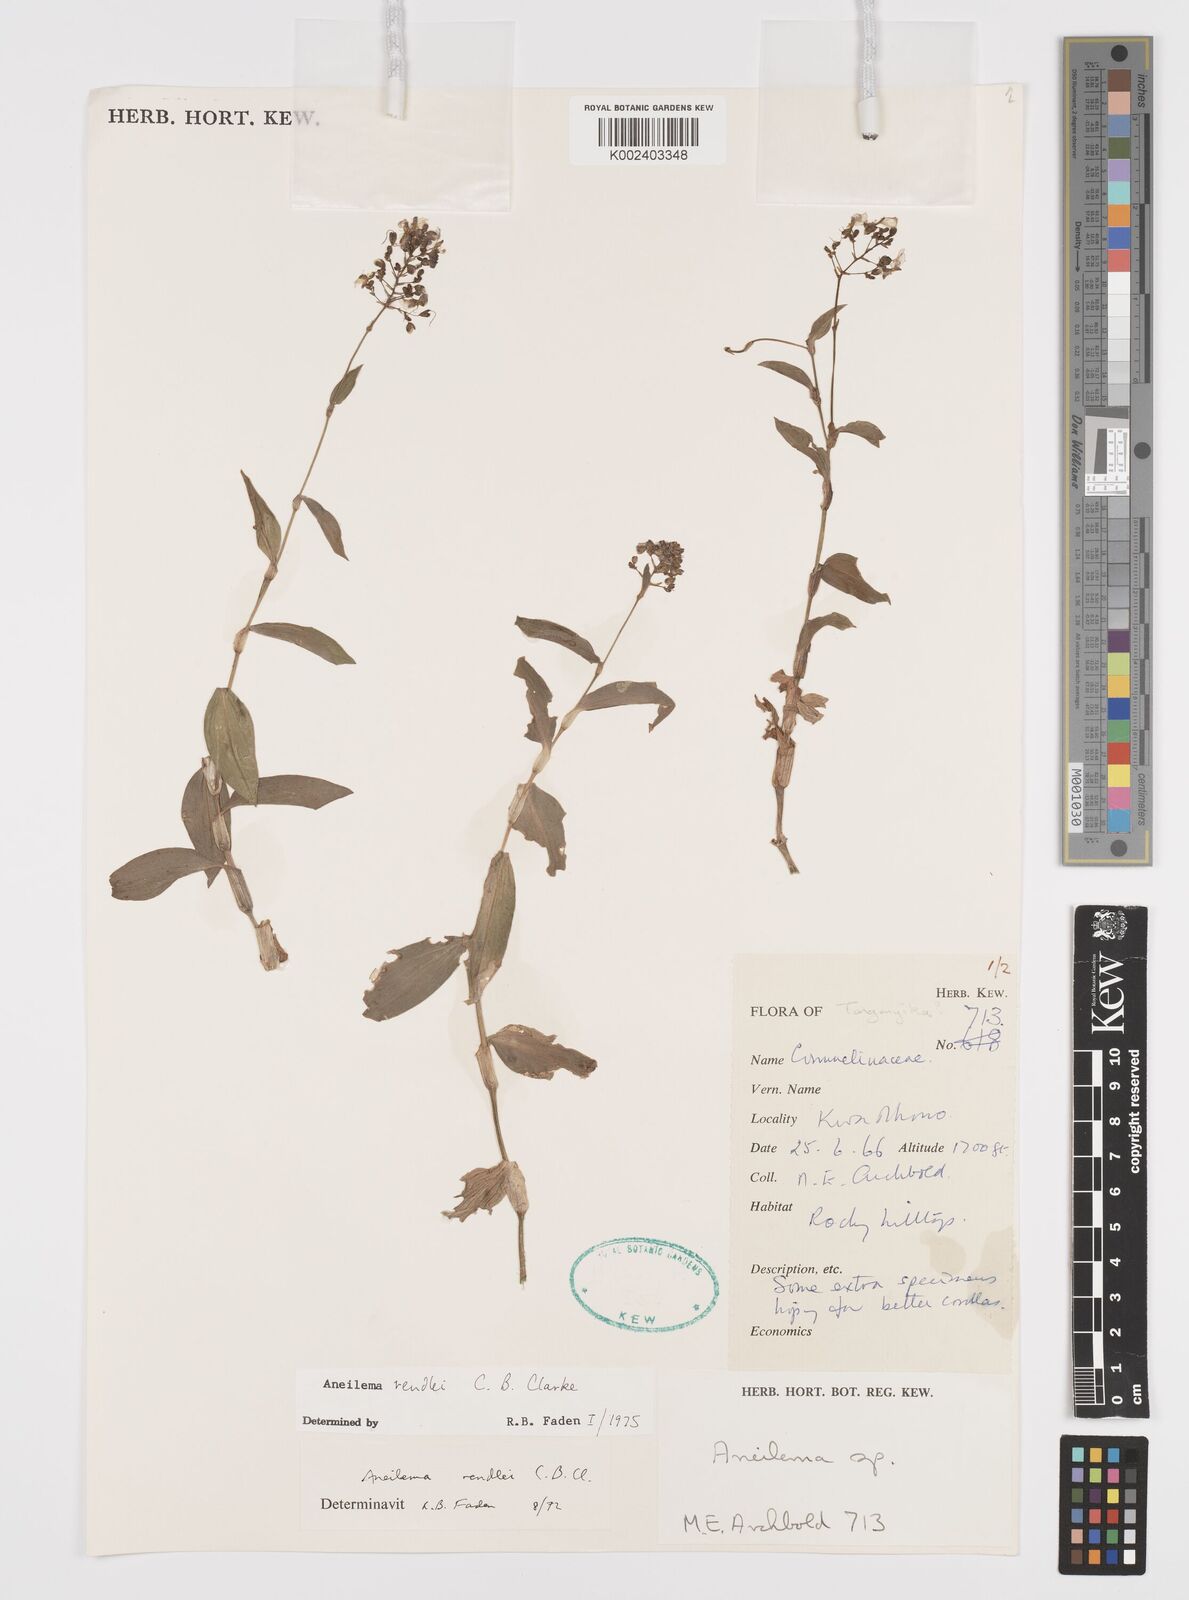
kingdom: Plantae
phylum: Tracheophyta
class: Liliopsida
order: Commelinales
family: Commelinaceae
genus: Aneilema
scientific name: Aneilema rendlei
